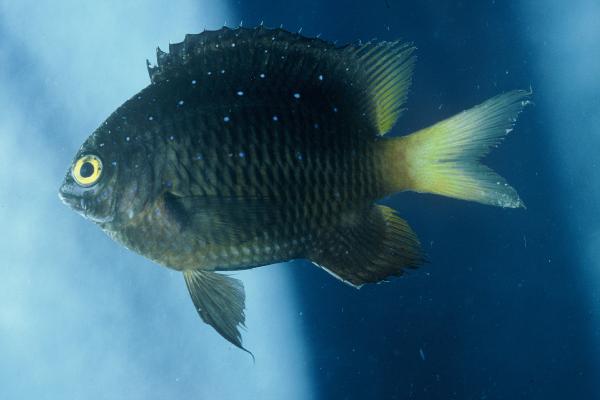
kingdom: Animalia
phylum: Chordata
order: Perciformes
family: Pomacentridae
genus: Plectroglyphidodon
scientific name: Plectroglyphidodon lacrymatus
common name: Jewel damsel
